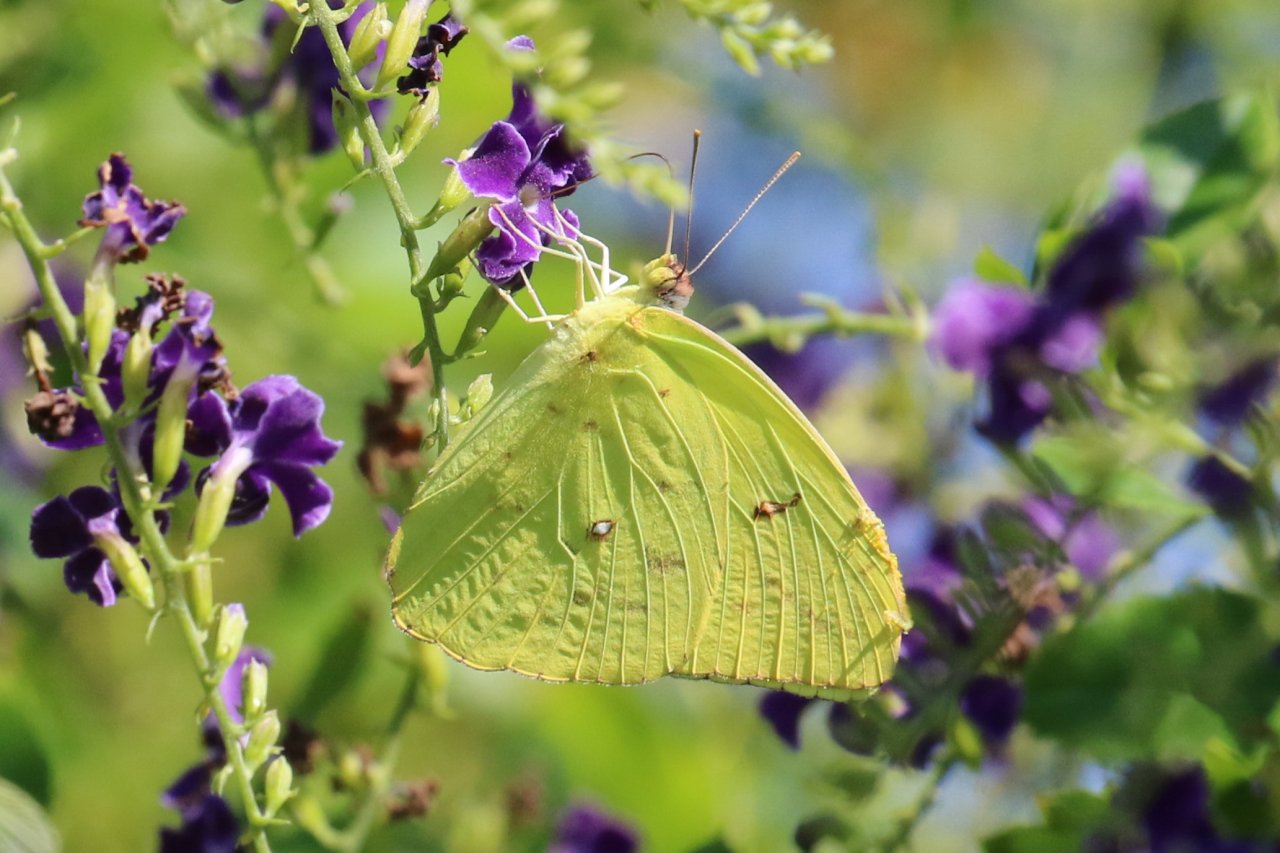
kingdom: Animalia
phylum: Arthropoda
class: Insecta
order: Lepidoptera
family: Pieridae
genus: Phoebis
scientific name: Phoebis sennae
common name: Cloudless Sulphur
